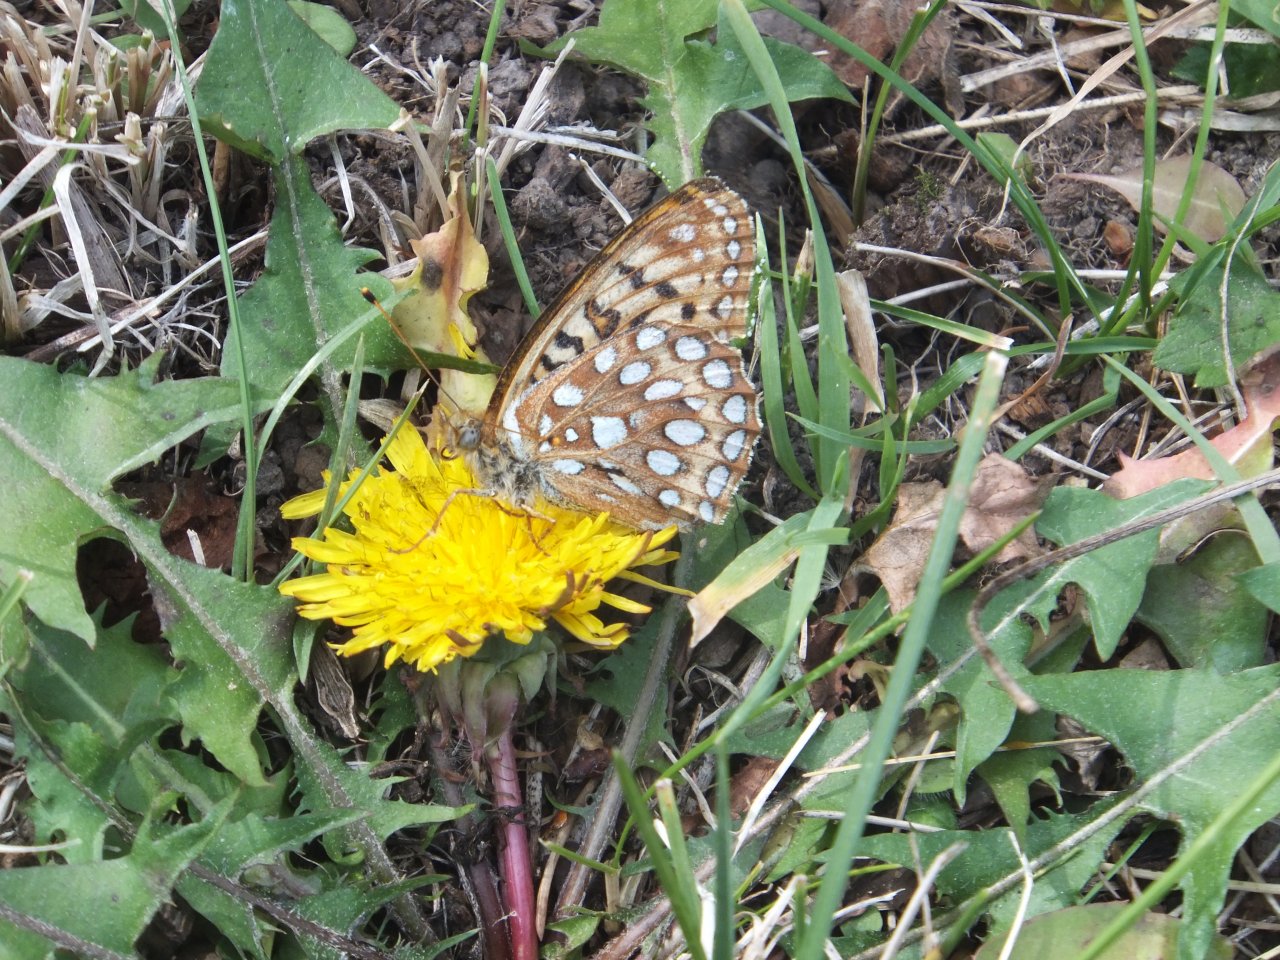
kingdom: Animalia
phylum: Arthropoda
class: Insecta
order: Lepidoptera
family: Nymphalidae
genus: Speyeria
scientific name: Speyeria zerene
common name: Zerene Fritillary
